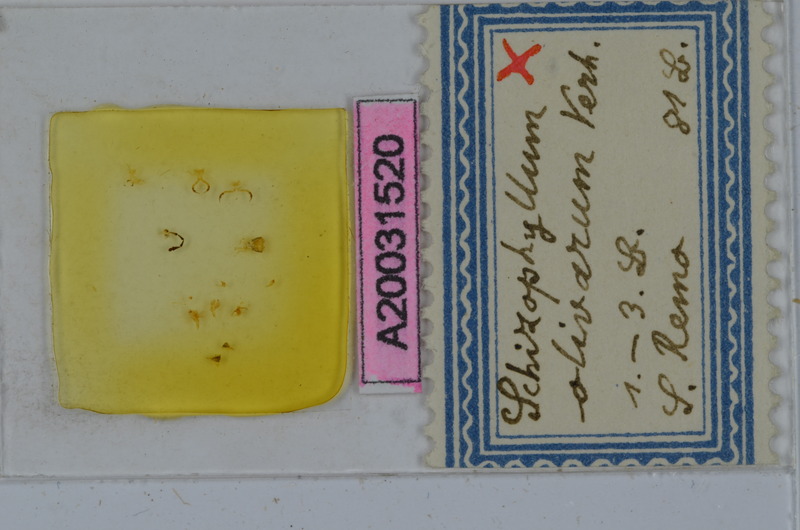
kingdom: Animalia
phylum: Arthropoda
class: Diplopoda
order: Julida
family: Julidae
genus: Ommatoiulus
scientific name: Ommatoiulus albolineatus
